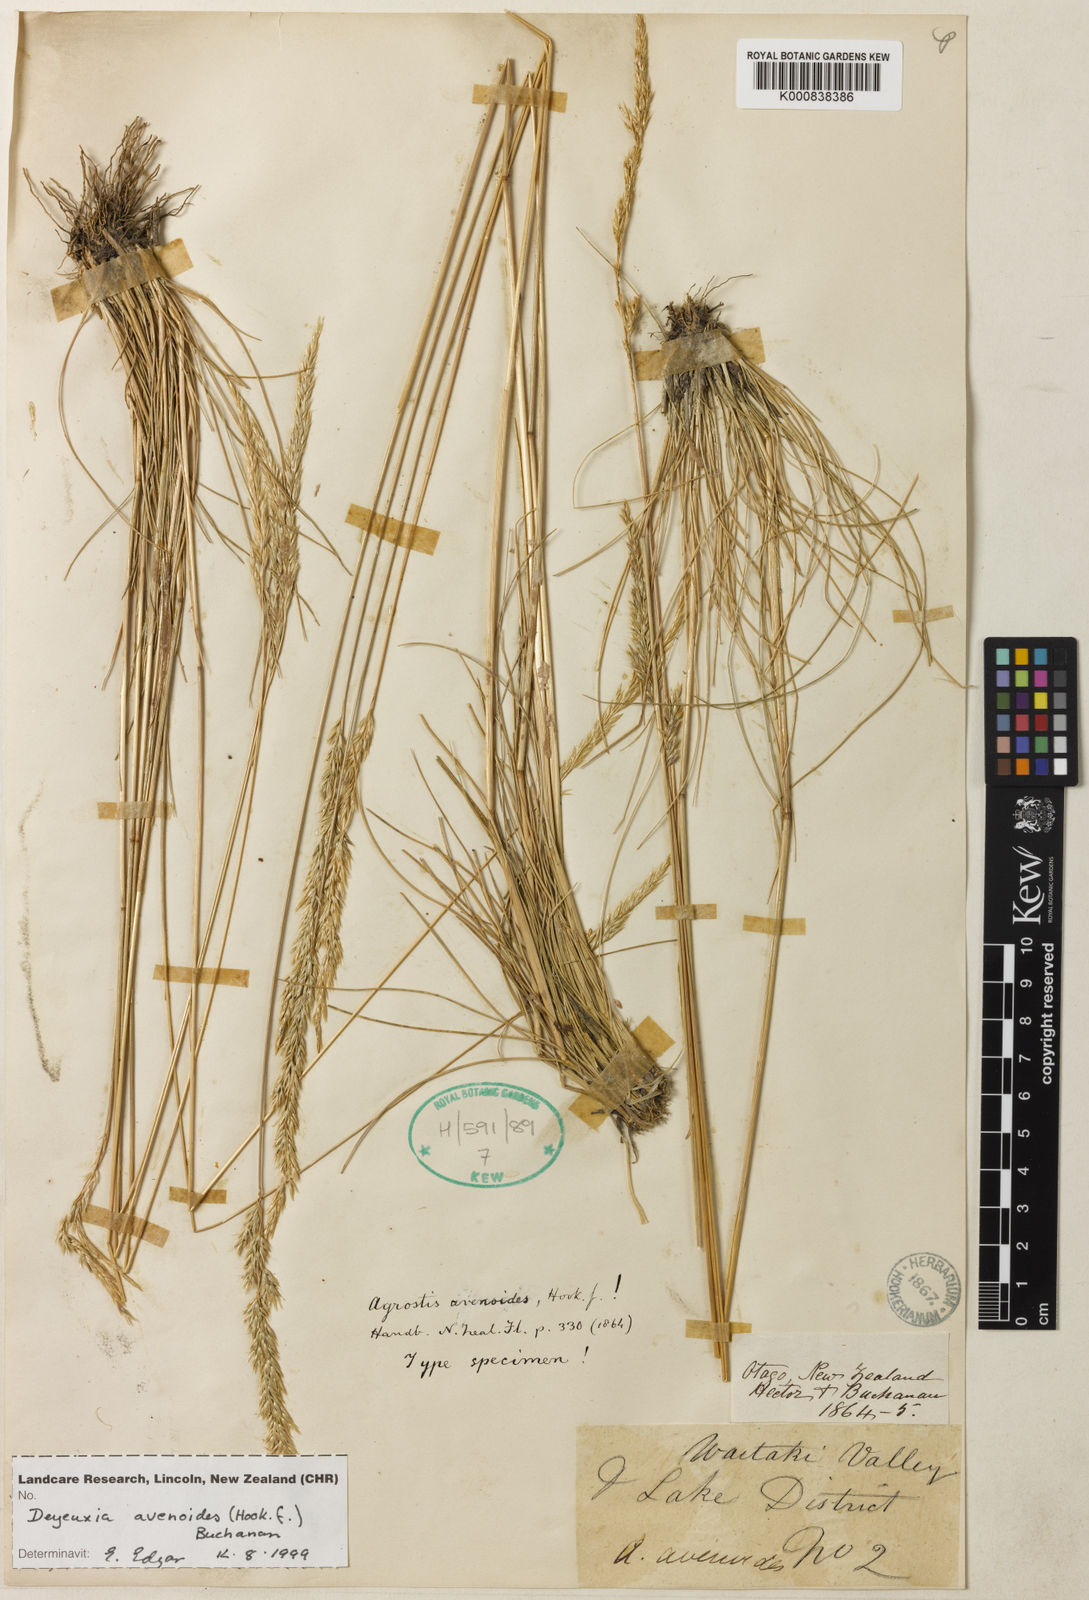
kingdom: Plantae
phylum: Tracheophyta
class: Liliopsida
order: Poales
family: Poaceae
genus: Calamagrostis
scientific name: Calamagrostis avenoides
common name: Mountain oat grass
